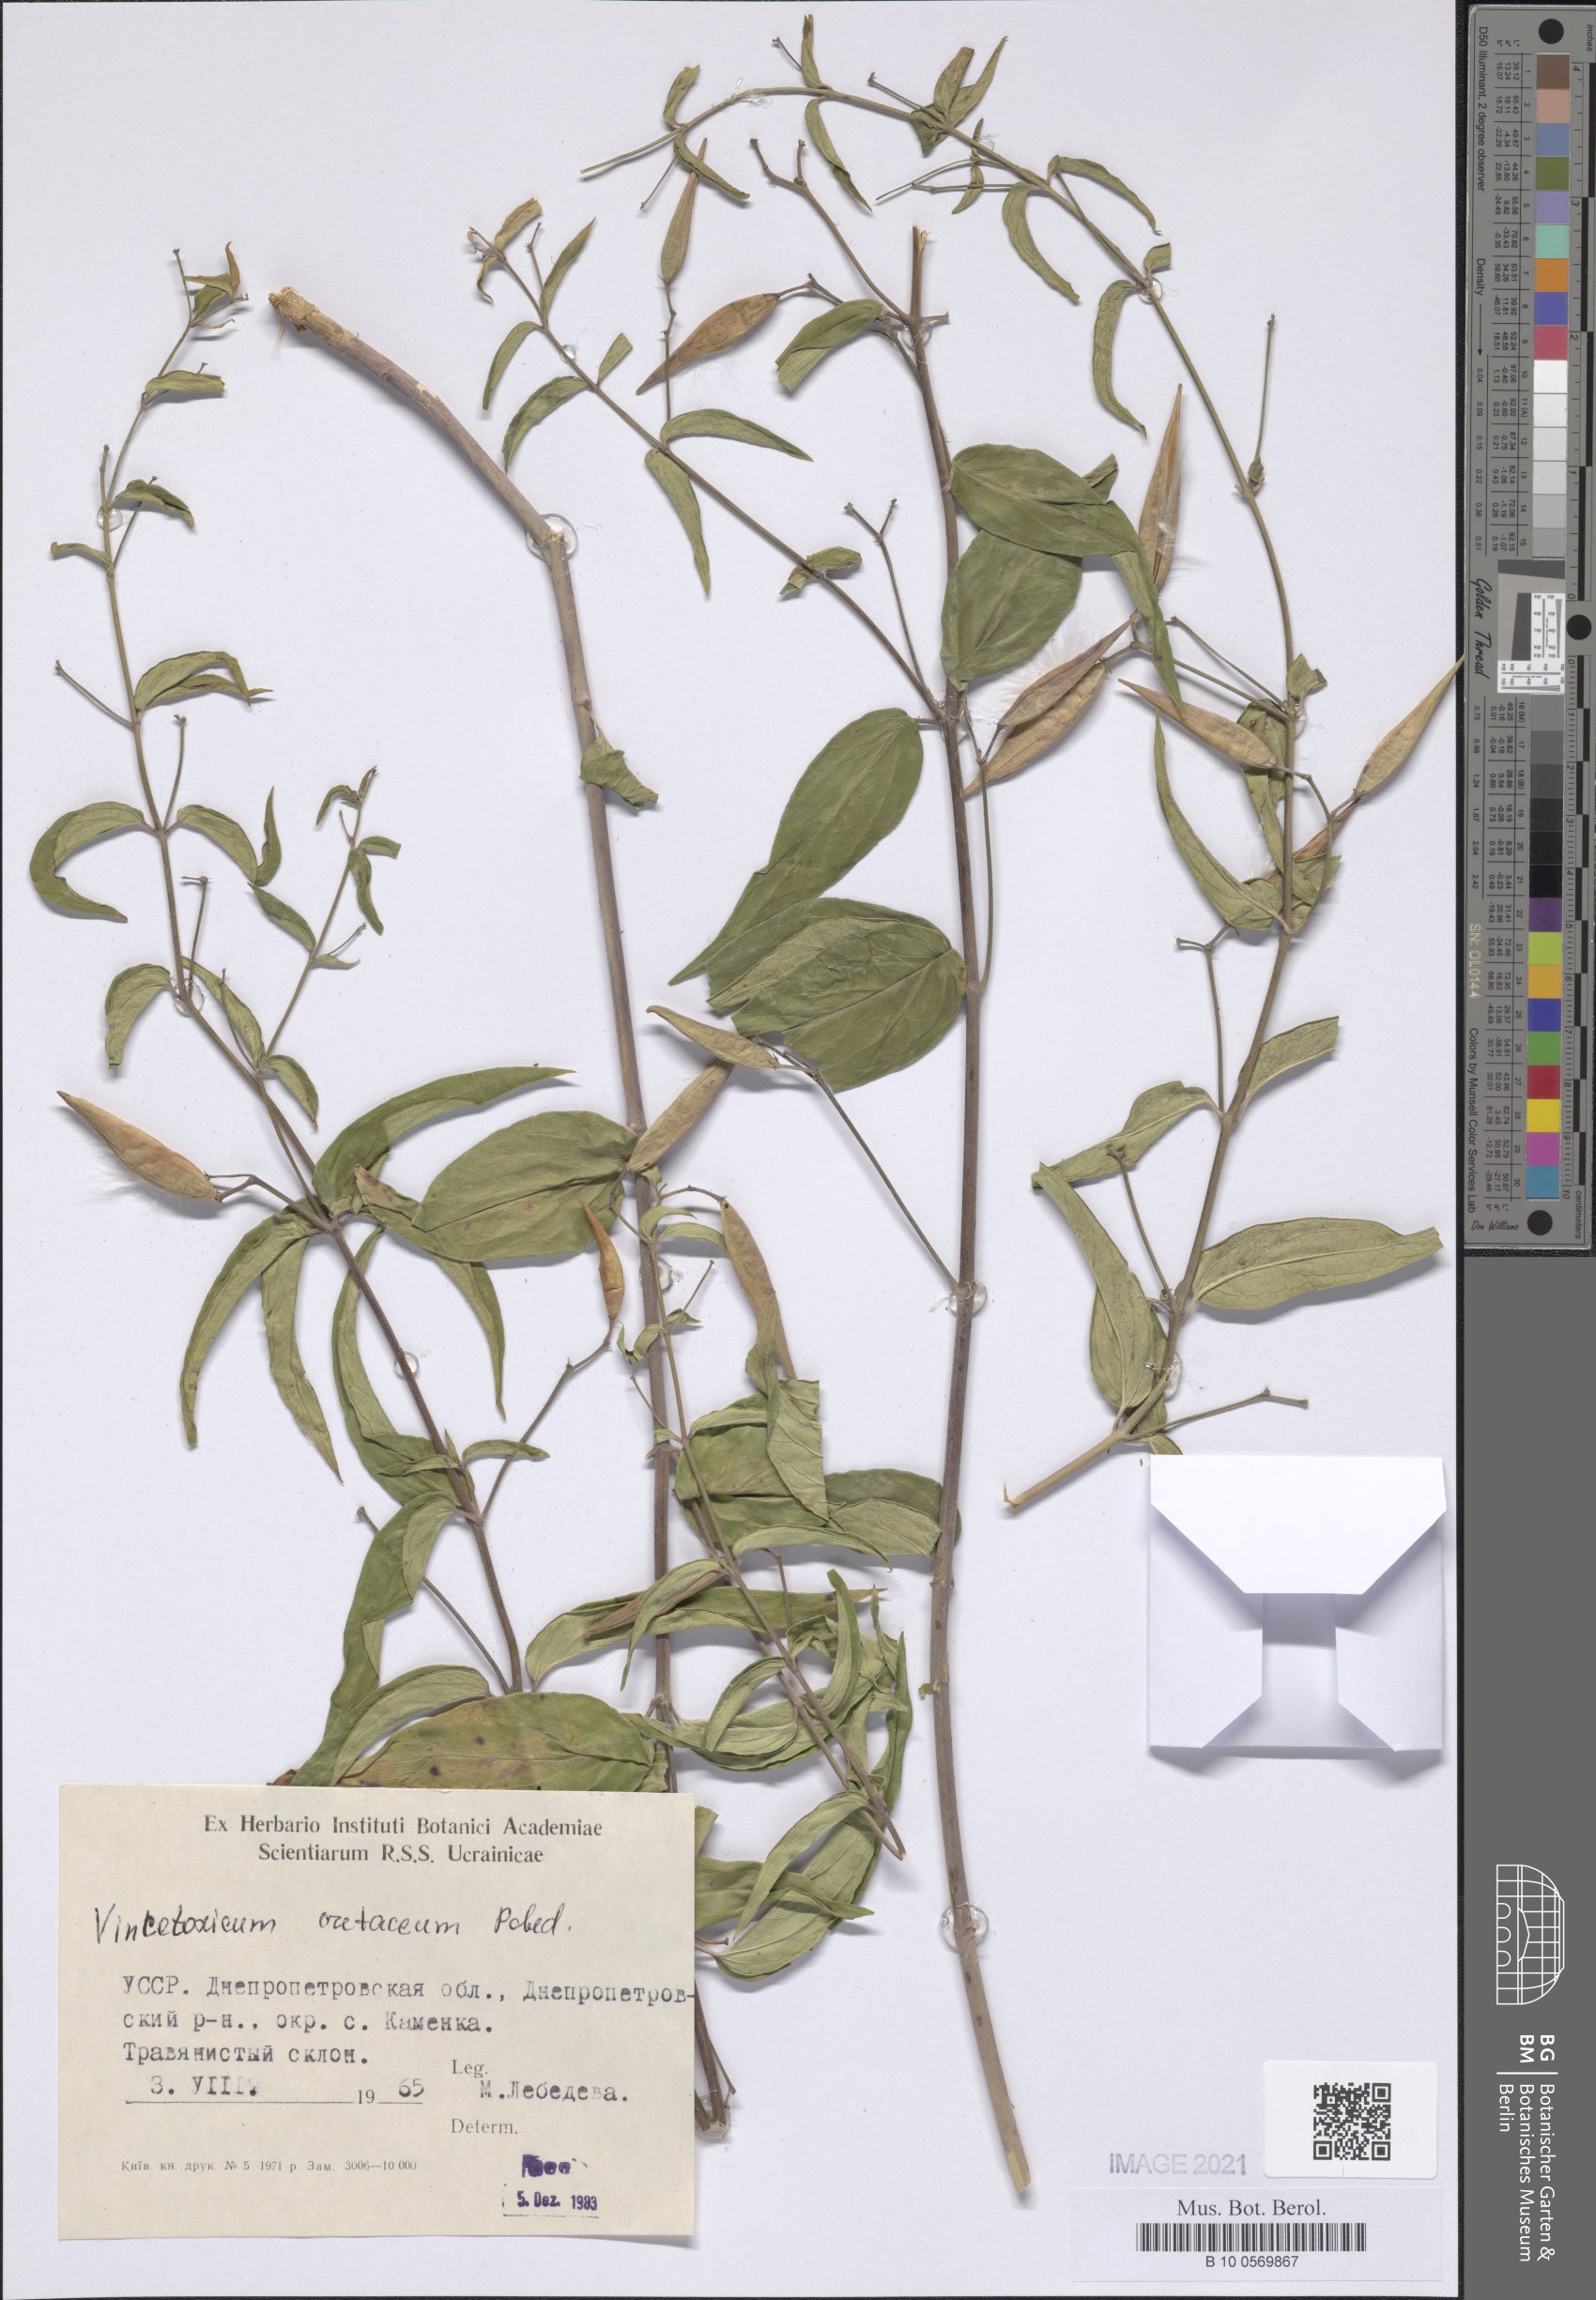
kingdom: Plantae
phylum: Tracheophyta
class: Magnoliopsida
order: Gentianales
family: Apocynaceae
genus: Vincetoxicum
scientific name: Vincetoxicum hirundinaria
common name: White swallowwort
